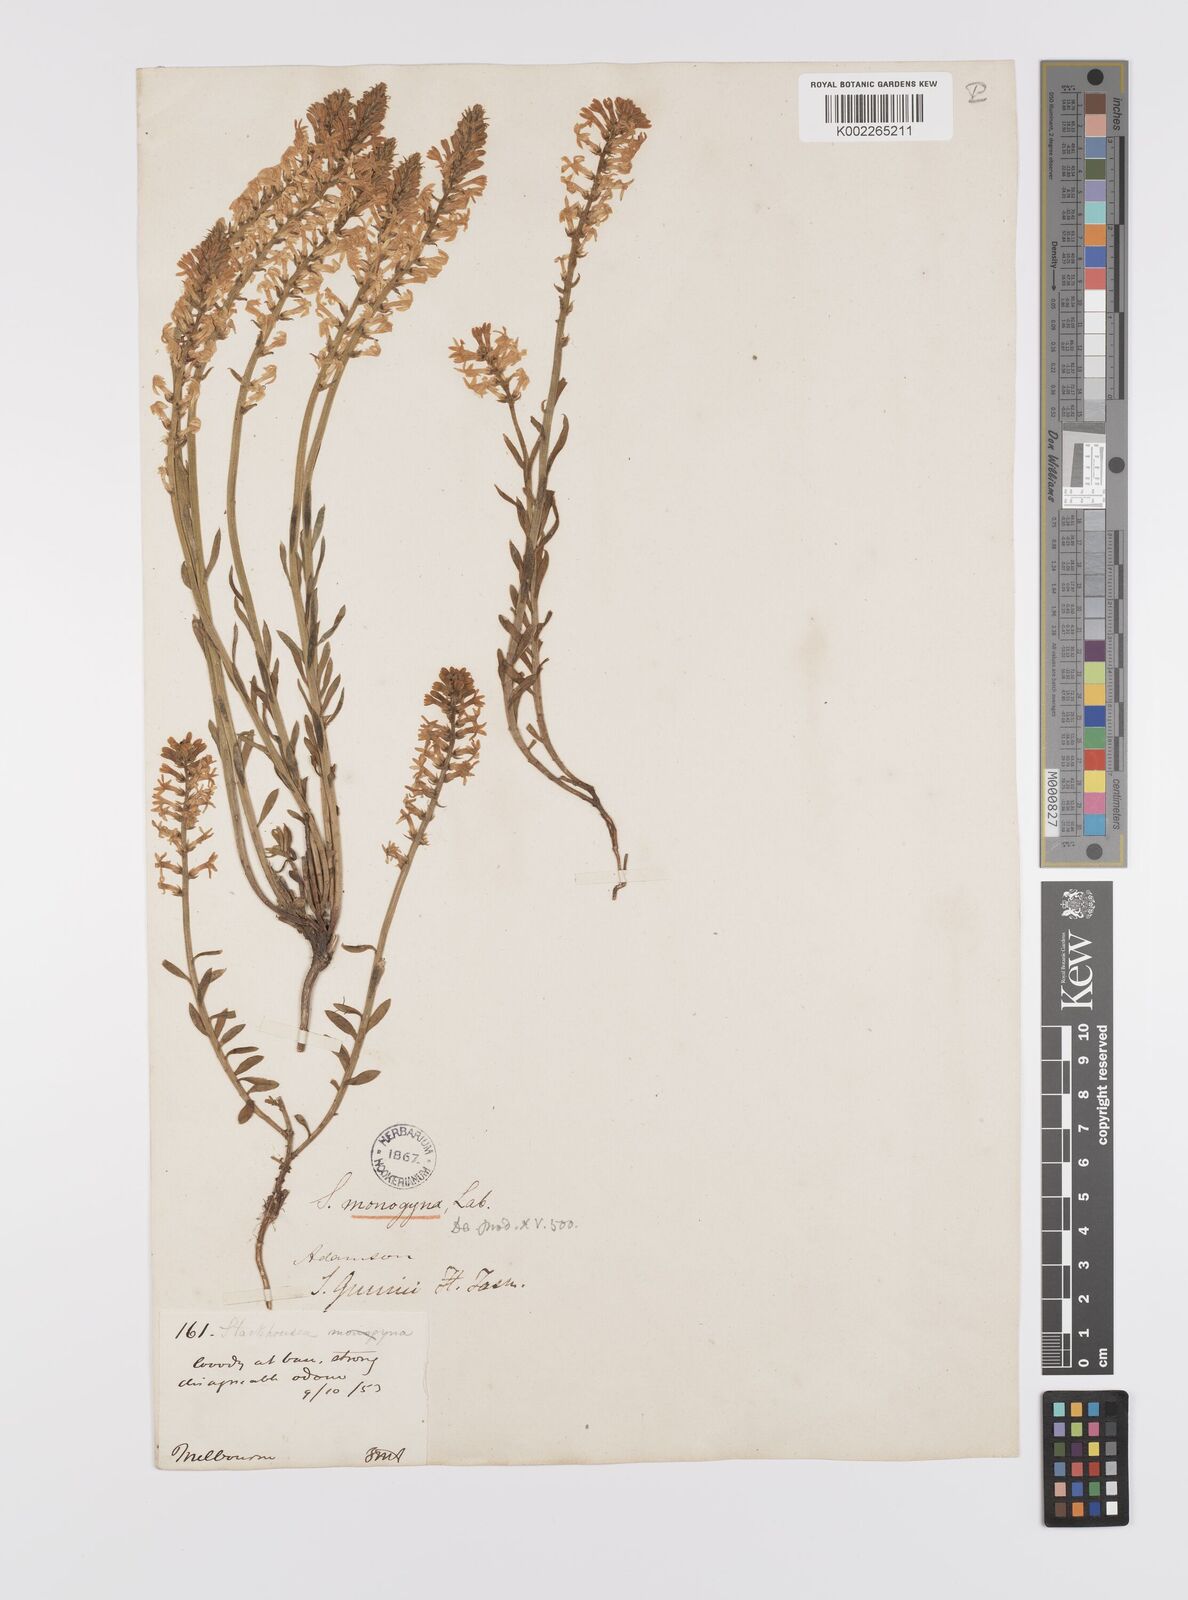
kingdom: Plantae
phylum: Tracheophyta
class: Magnoliopsida
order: Celastrales
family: Celastraceae
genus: Stackhousia
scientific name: Stackhousia monogyna
